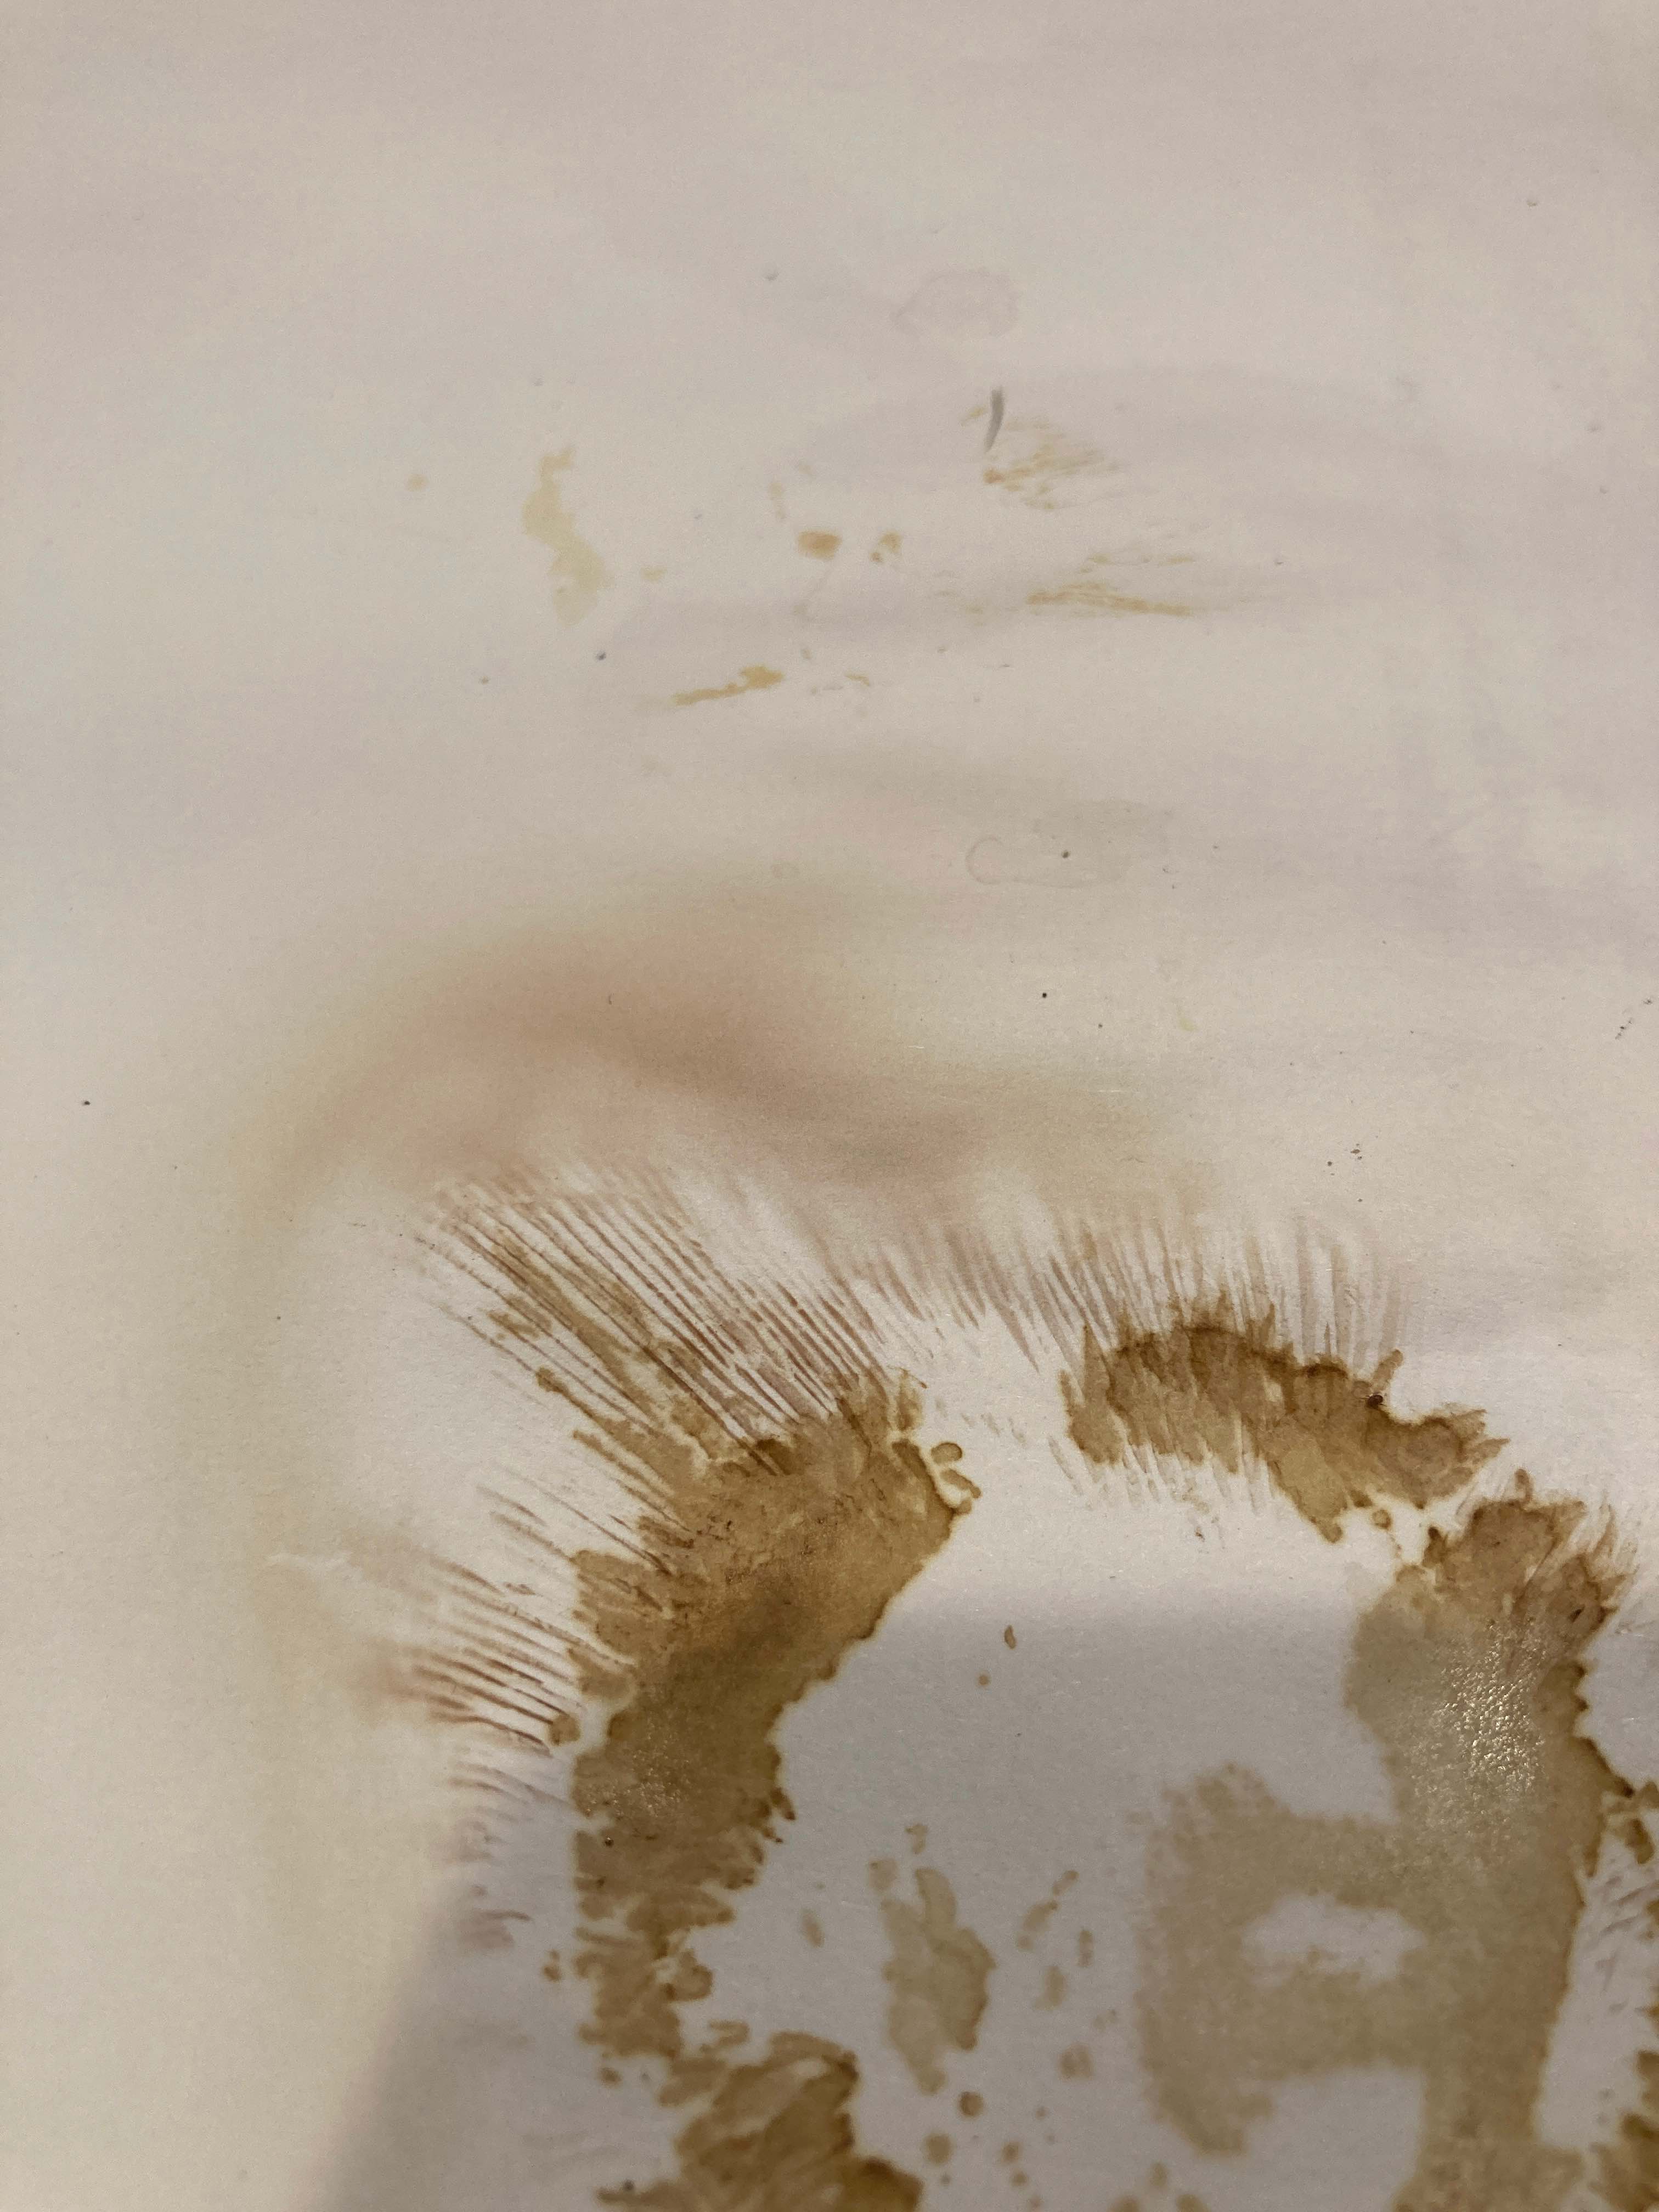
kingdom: Fungi
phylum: Basidiomycota
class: Agaricomycetes
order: Boletales
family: Paxillaceae
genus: Paxillus
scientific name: Paxillus obscurisporus
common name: mahognisporet netbladhat
